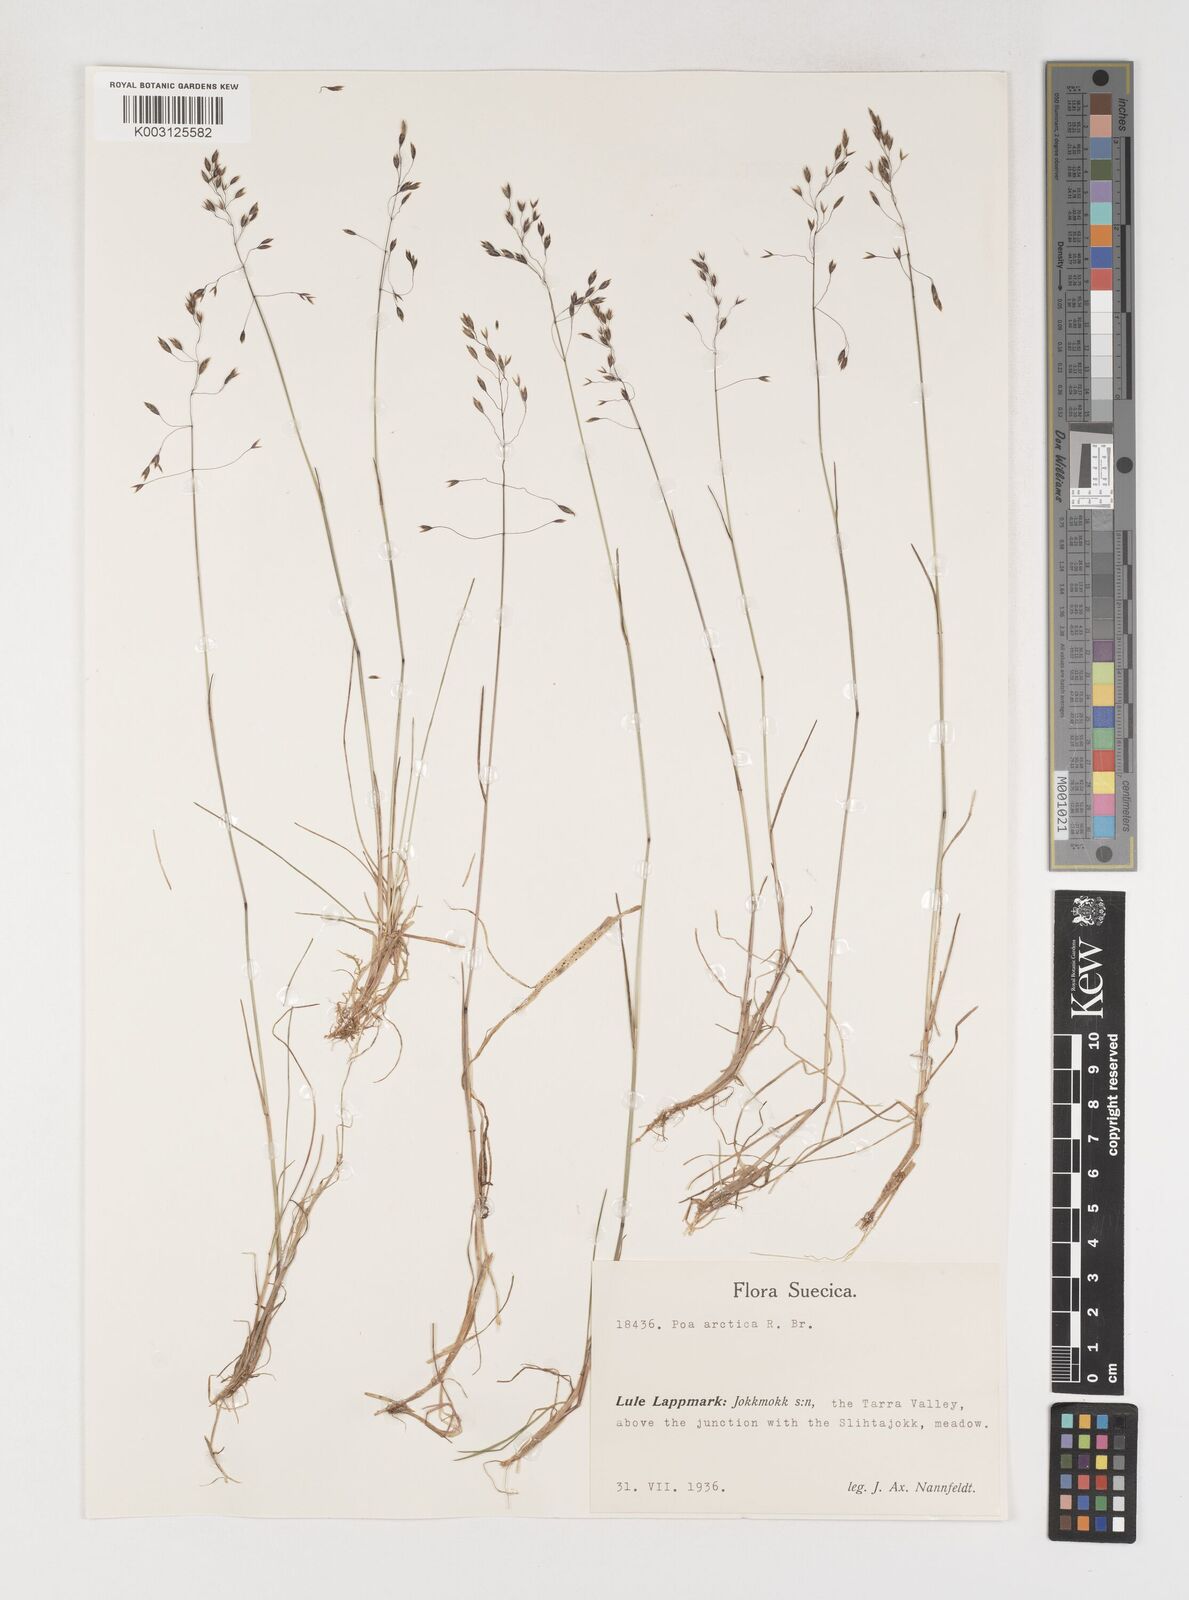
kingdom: Plantae
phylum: Tracheophyta
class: Liliopsida
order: Poales
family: Poaceae
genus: Poa
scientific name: Poa arctica
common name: Arctic bluegrass
